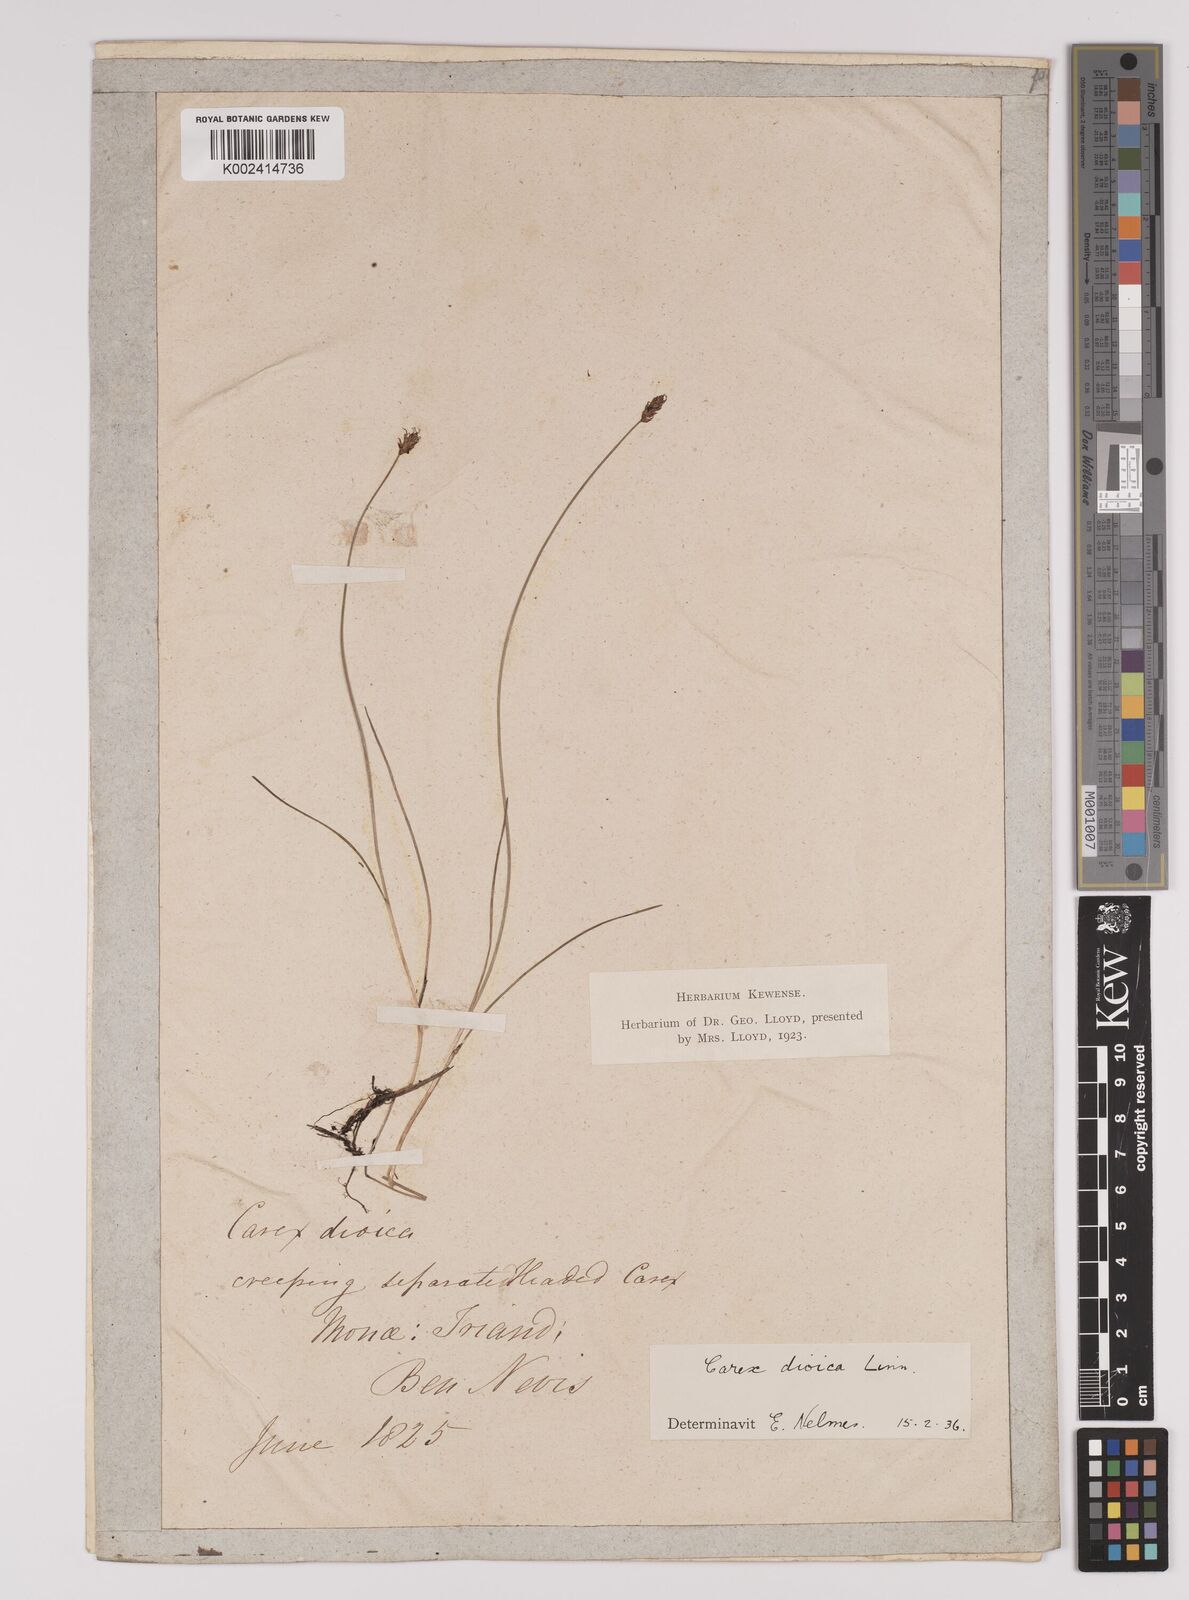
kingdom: Plantae
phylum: Tracheophyta
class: Liliopsida
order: Poales
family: Cyperaceae
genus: Carex
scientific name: Carex dioica
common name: Dioecious sedge
